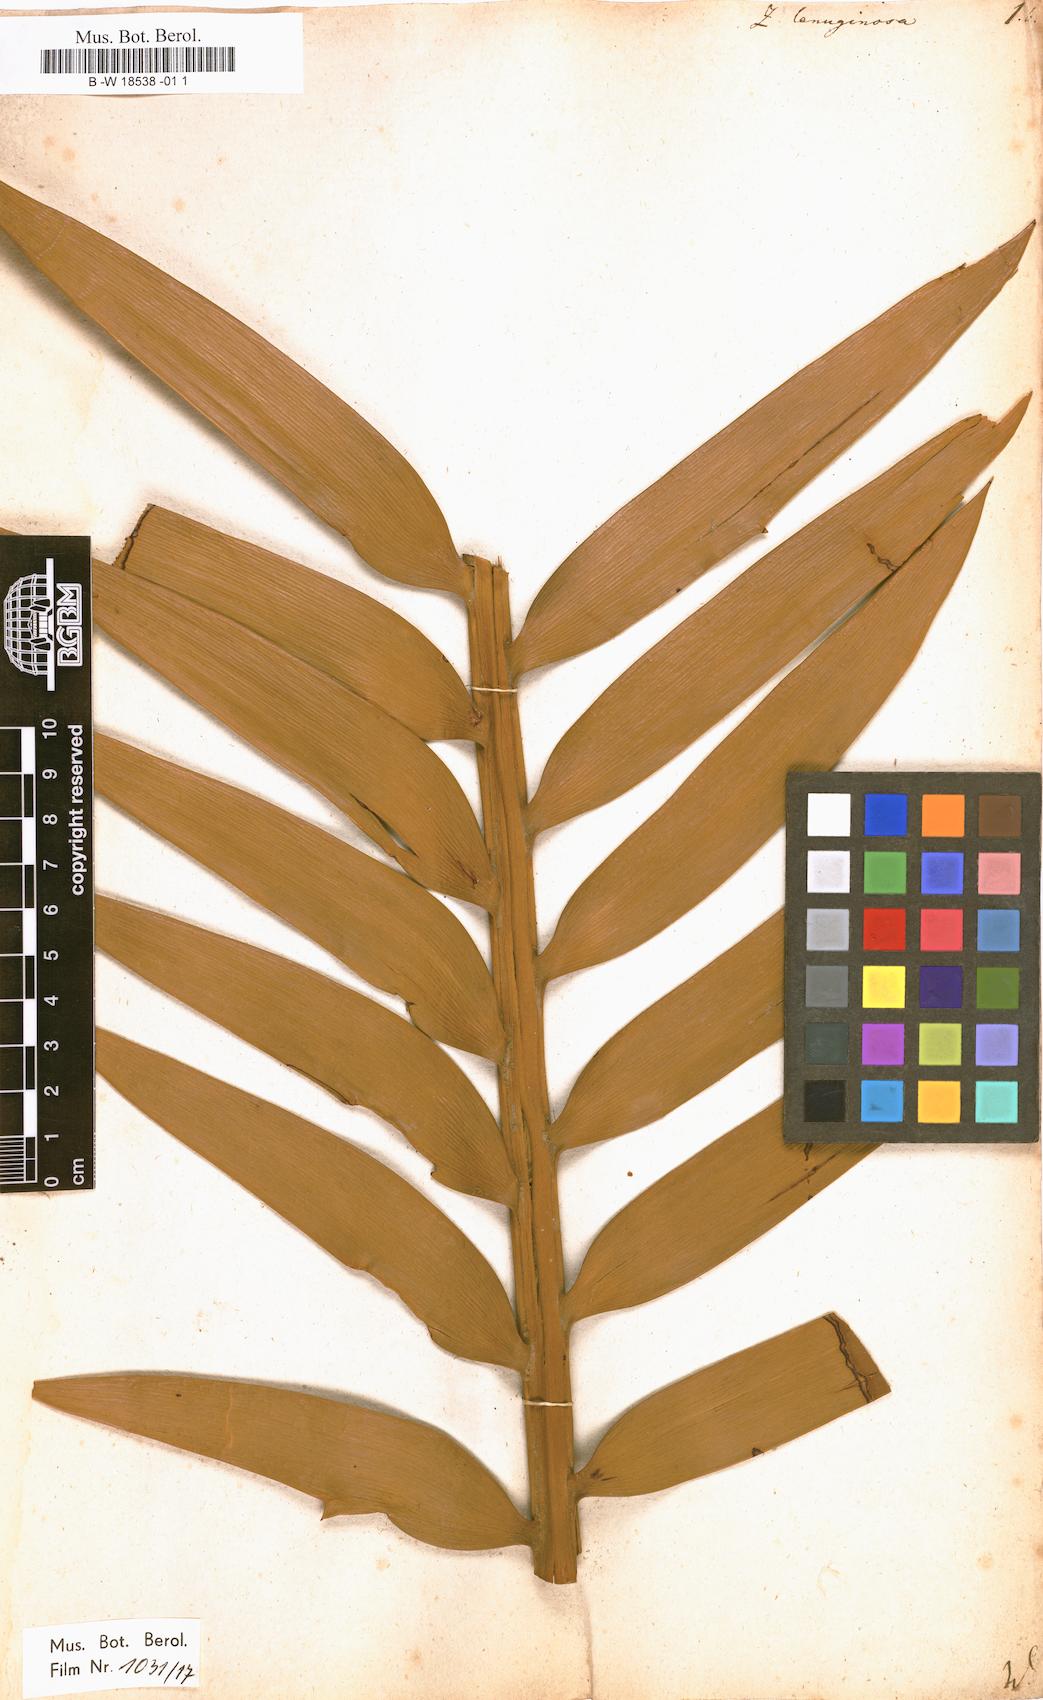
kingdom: Plantae
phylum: Tracheophyta
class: Cycadopsida
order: Cycadales
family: Zamiaceae
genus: Encephalartos
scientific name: Encephalartos longifolius
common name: Suurberg cycad
